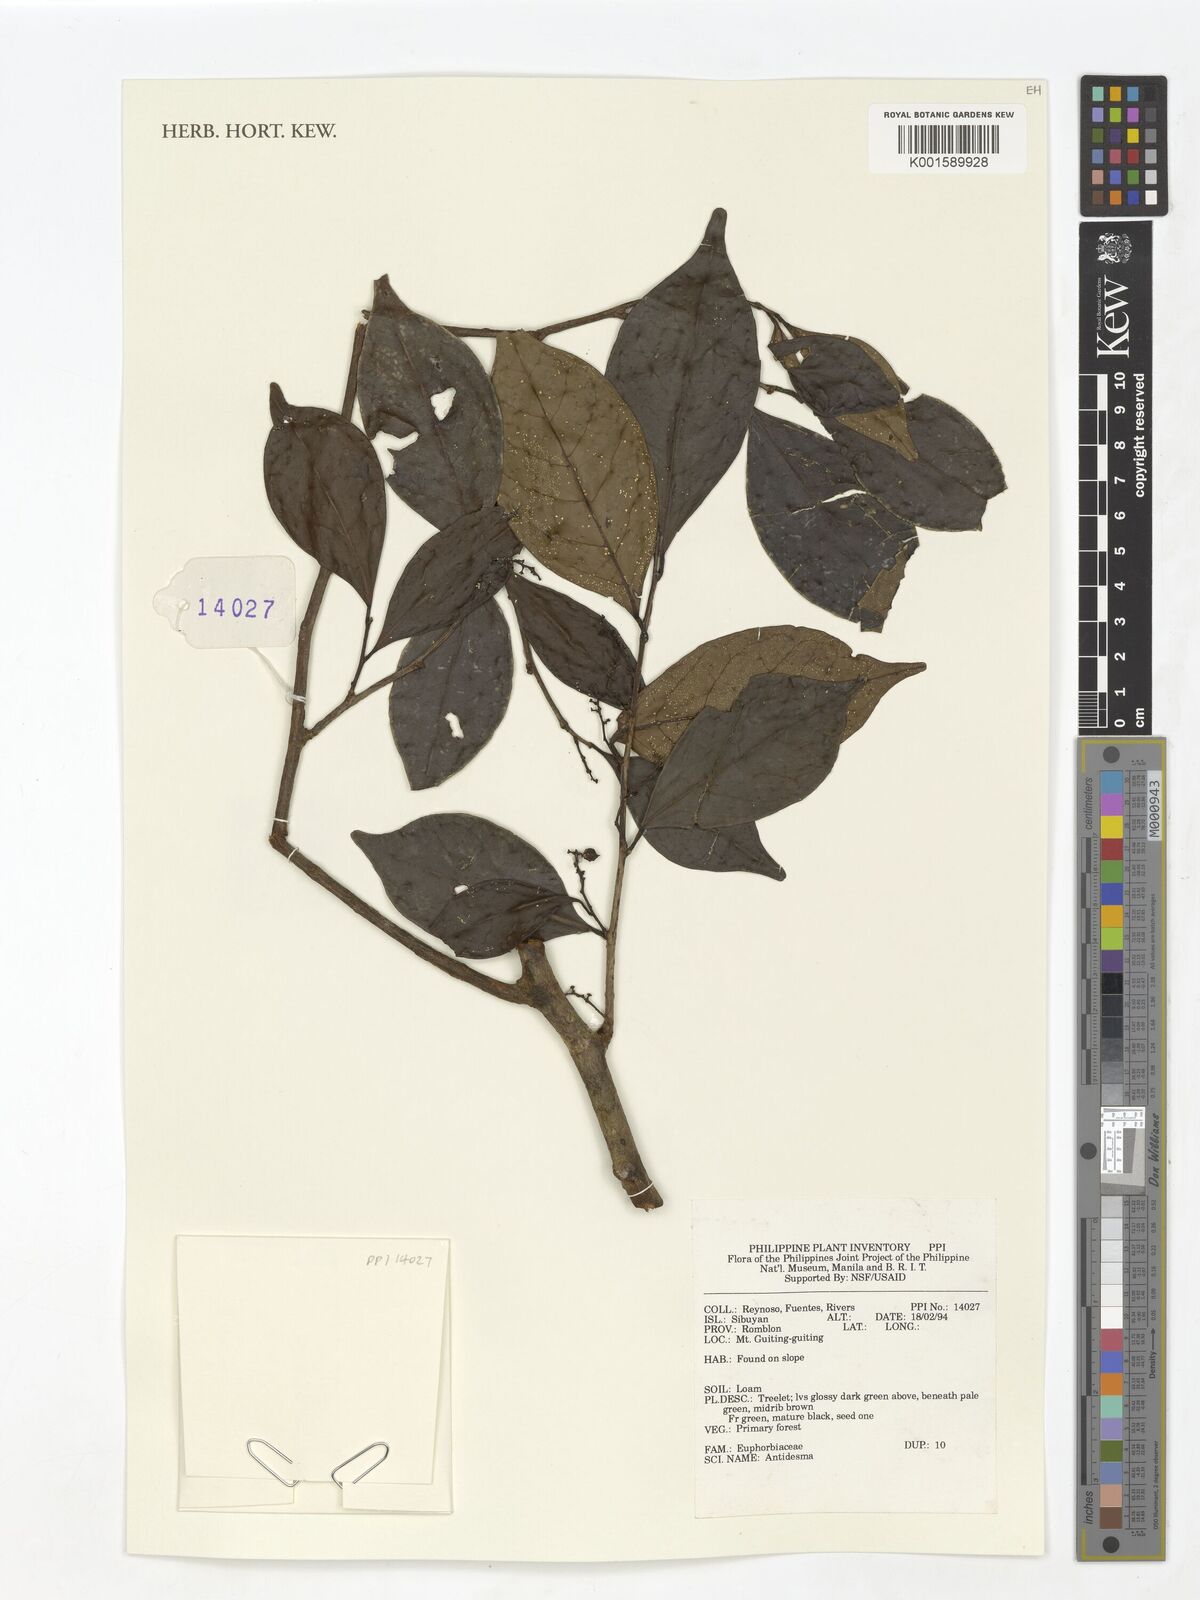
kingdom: Plantae
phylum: Tracheophyta
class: Magnoliopsida
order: Malpighiales
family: Phyllanthaceae
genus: Antidesma
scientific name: Antidesma
